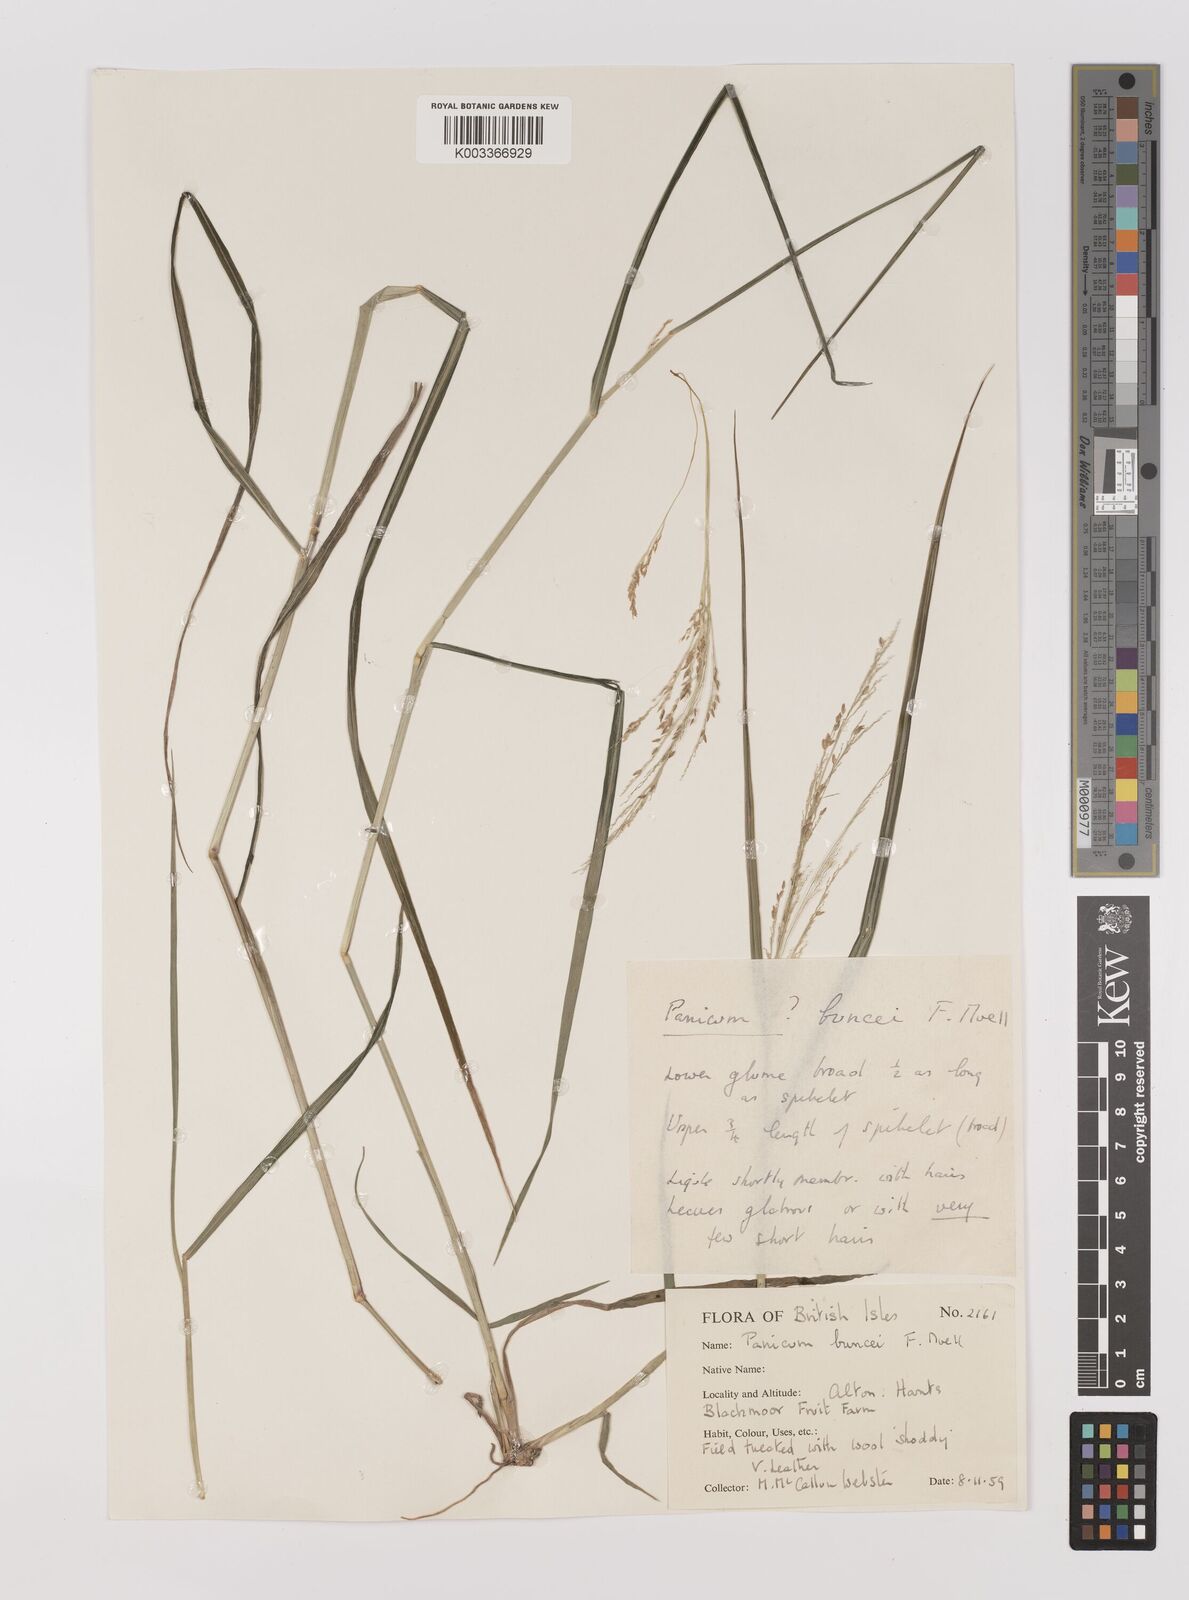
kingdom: Plantae
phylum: Tracheophyta
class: Liliopsida
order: Poales
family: Poaceae
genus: Panicum
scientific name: Panicum buncei
